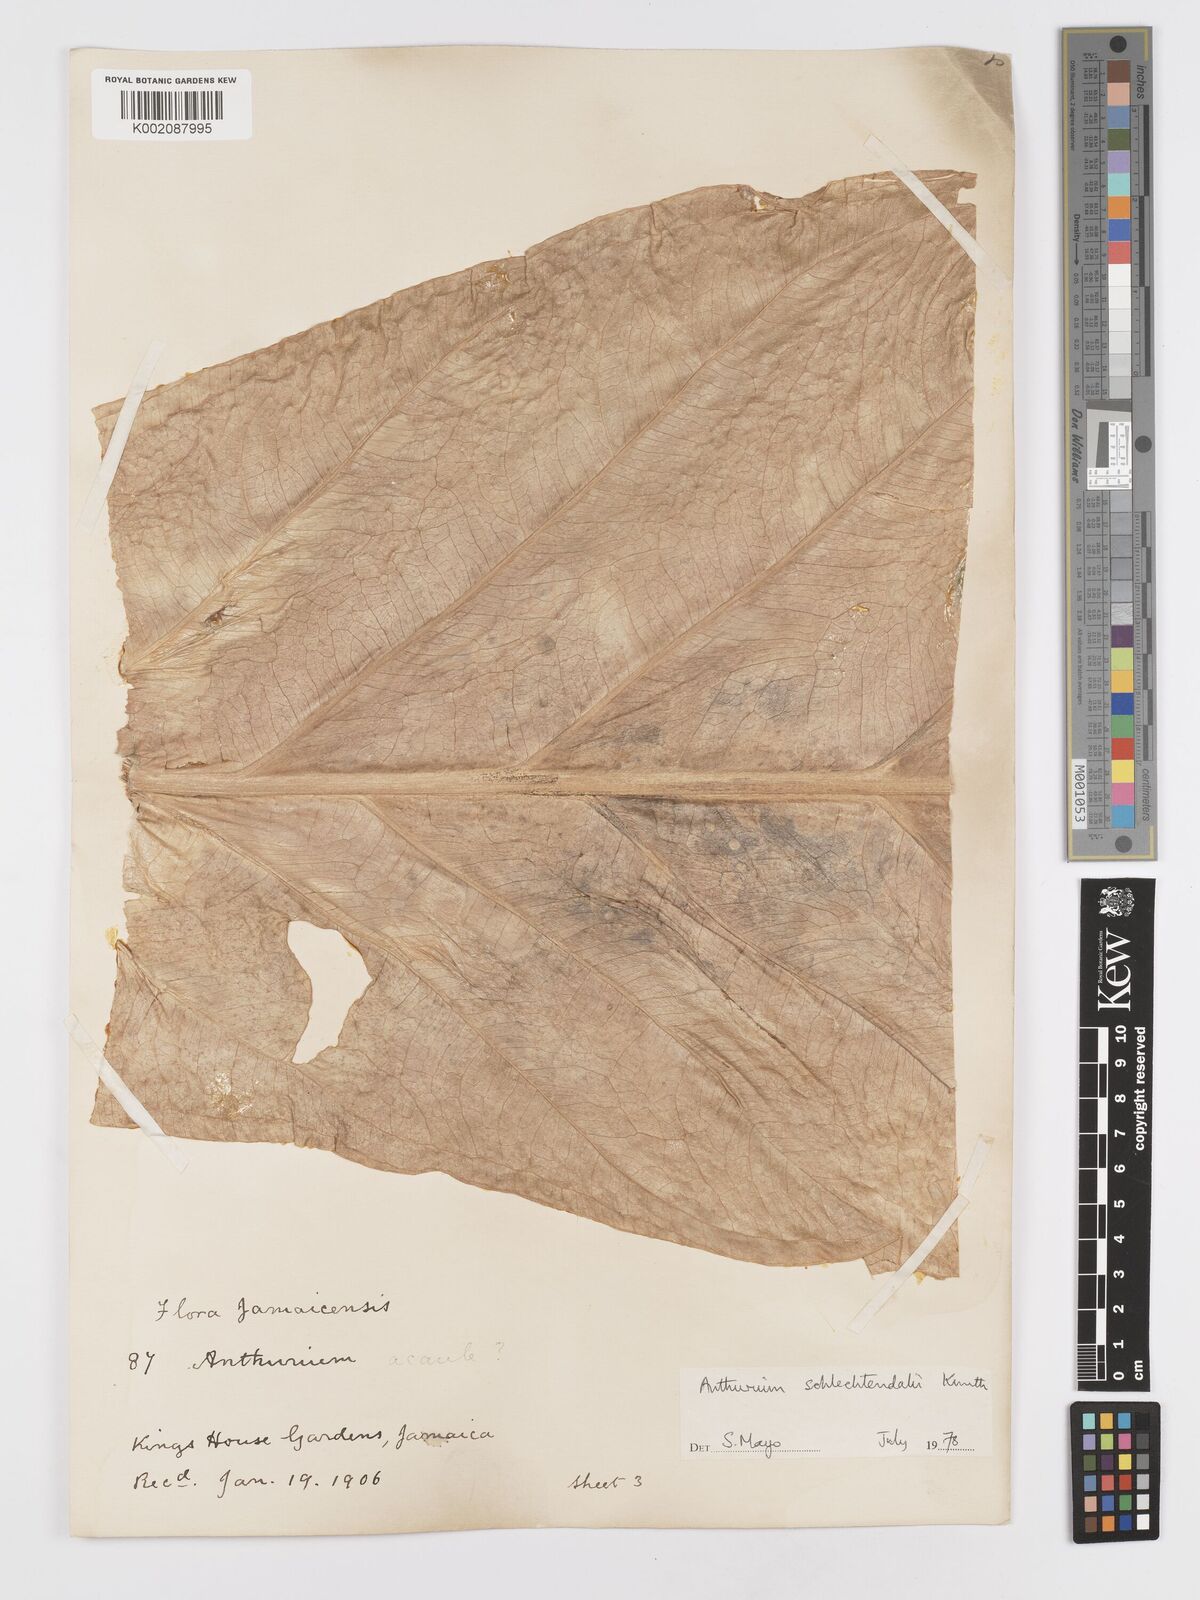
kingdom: Plantae
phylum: Tracheophyta
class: Liliopsida
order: Alismatales
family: Araceae
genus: Anthurium
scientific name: Anthurium schlechtendalii
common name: Laceleaf
